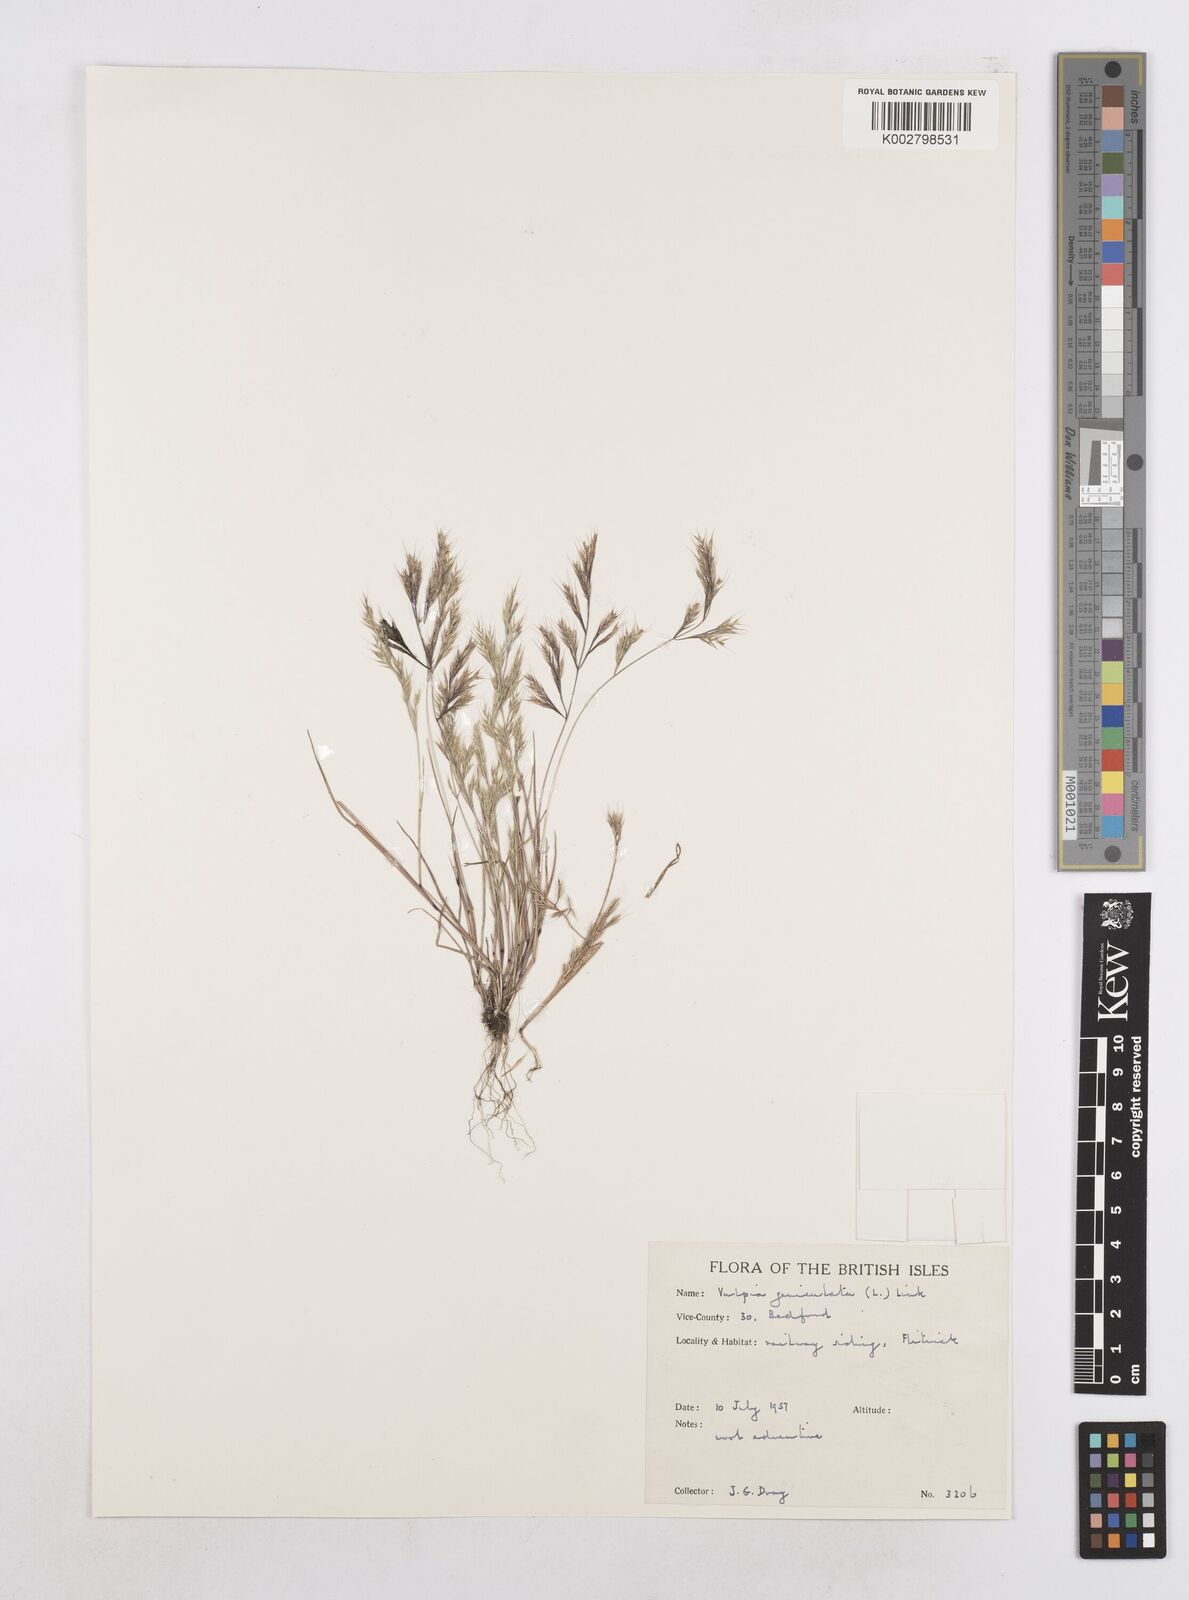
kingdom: Plantae
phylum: Tracheophyta
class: Liliopsida
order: Poales
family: Poaceae
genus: Festuca
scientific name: Festuca geniculata
